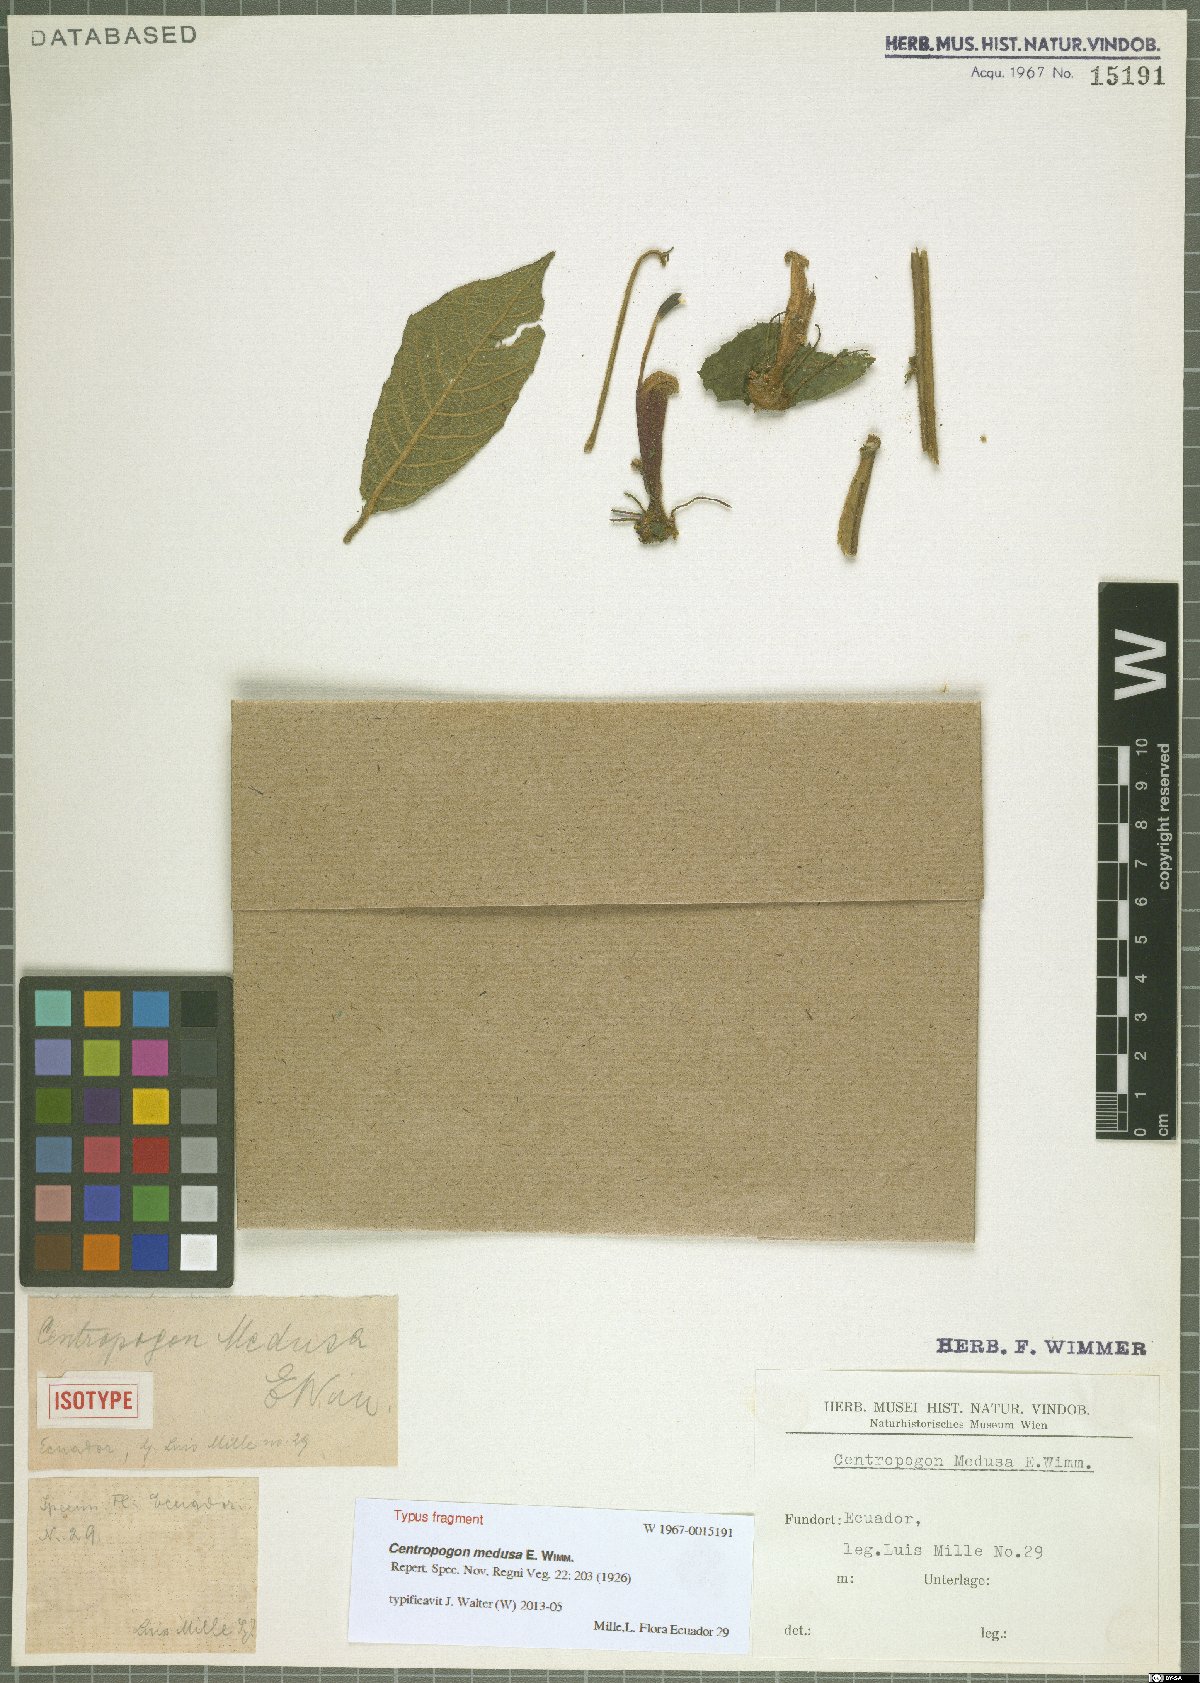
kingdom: Plantae
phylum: Tracheophyta
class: Magnoliopsida
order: Asterales
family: Campanulaceae
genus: Centropogon
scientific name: Centropogon medusa
